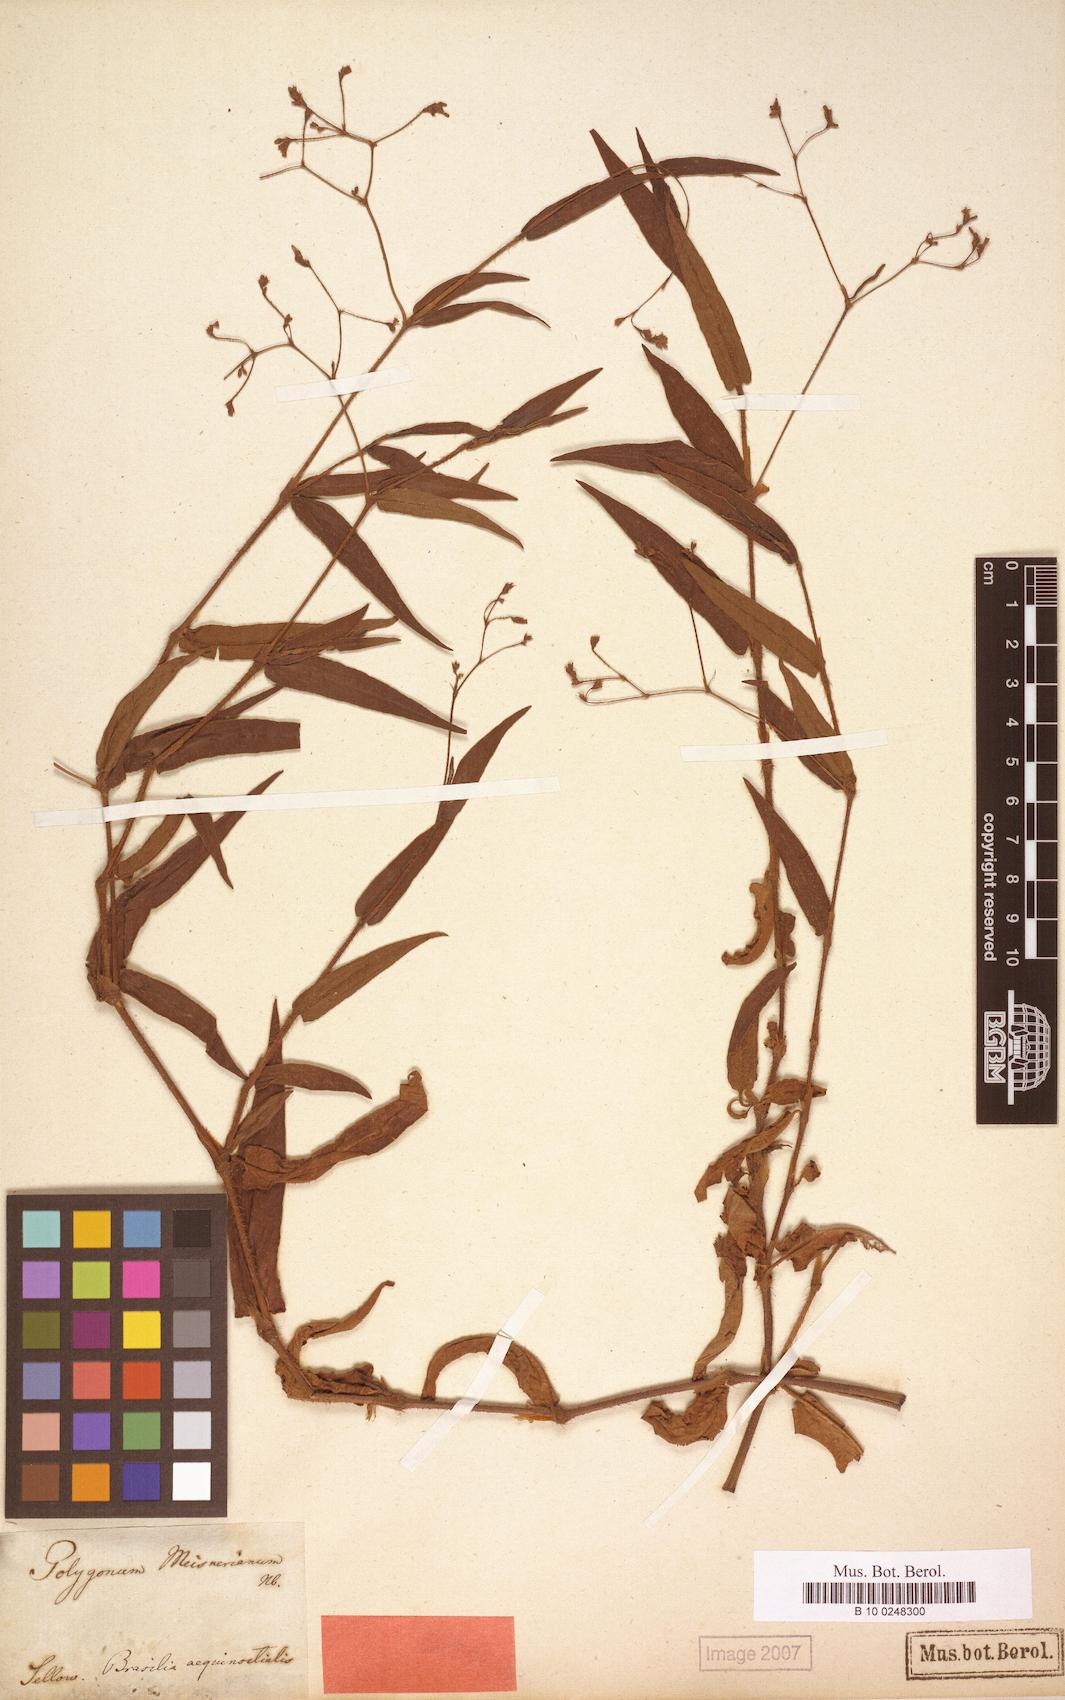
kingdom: Plantae
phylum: Tracheophyta
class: Magnoliopsida
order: Caryophyllales
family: Polygonaceae
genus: Persicaria
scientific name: Persicaria meisneriana
